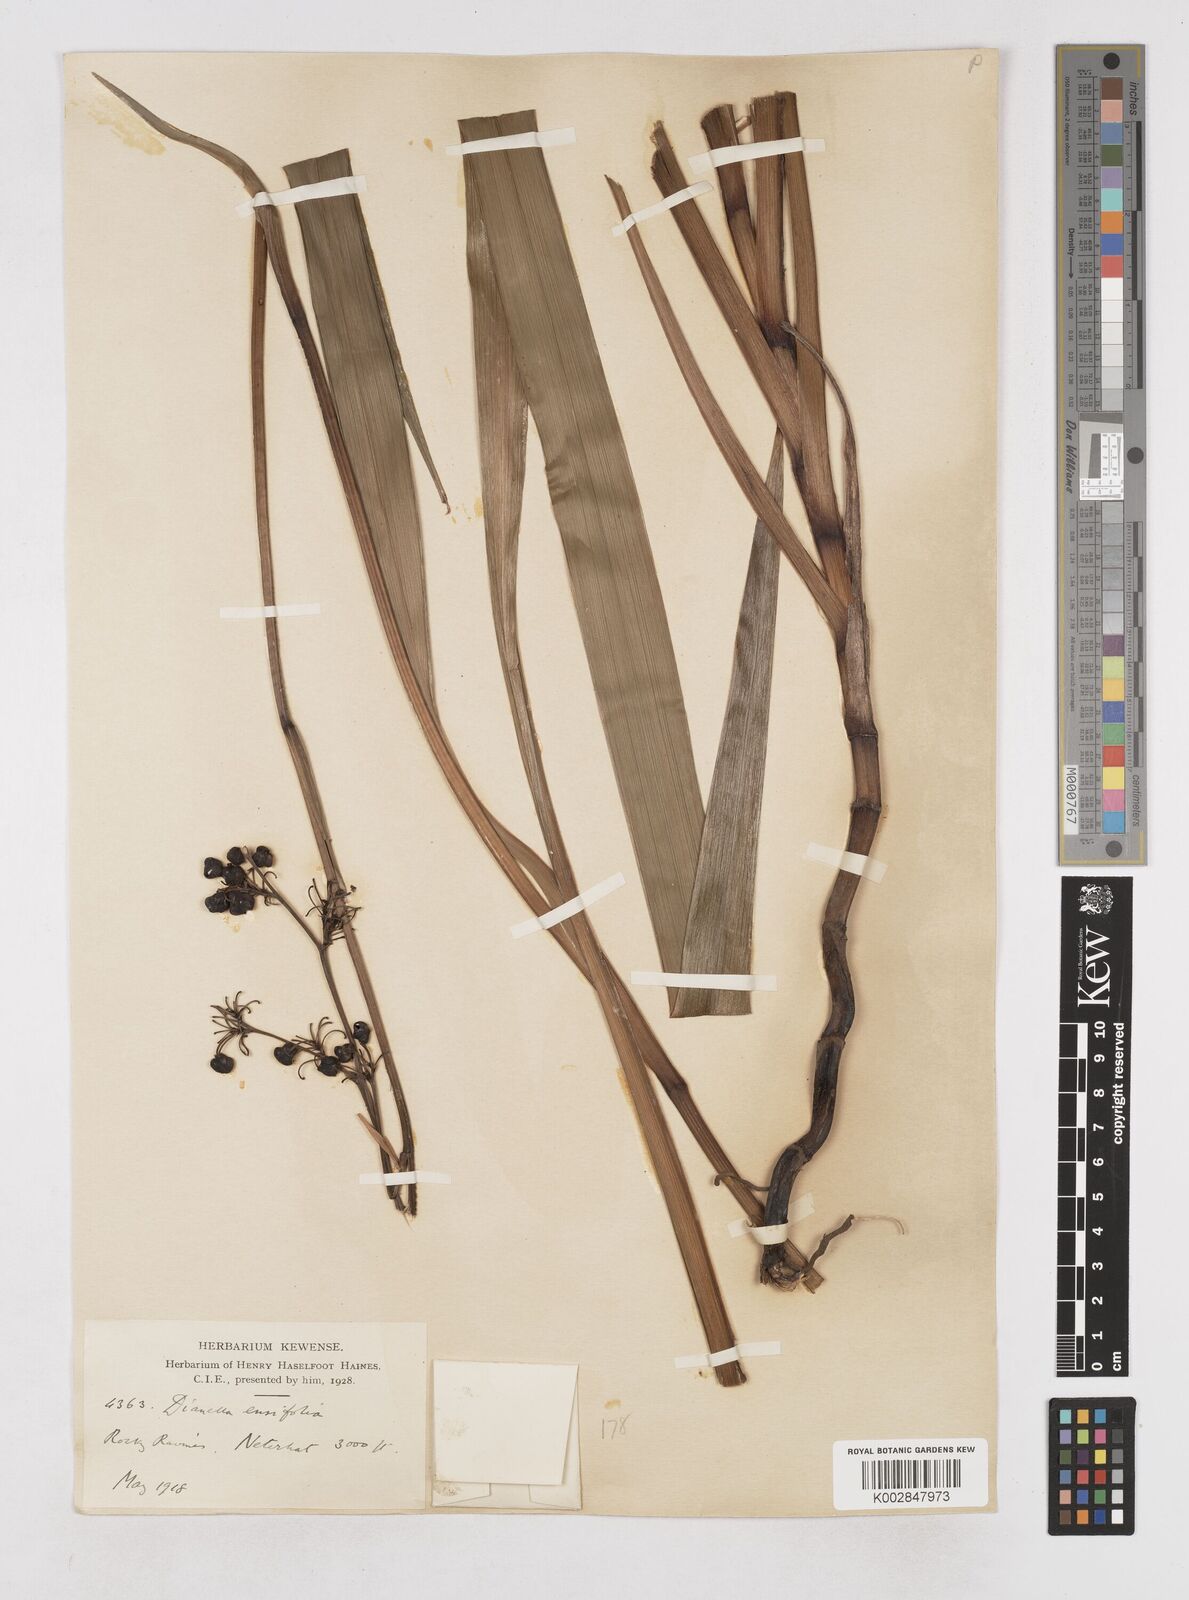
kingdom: Plantae
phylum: Tracheophyta
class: Liliopsida
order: Asparagales
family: Asphodelaceae
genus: Dianella
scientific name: Dianella ensifolia
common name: New zealand lilyplant
